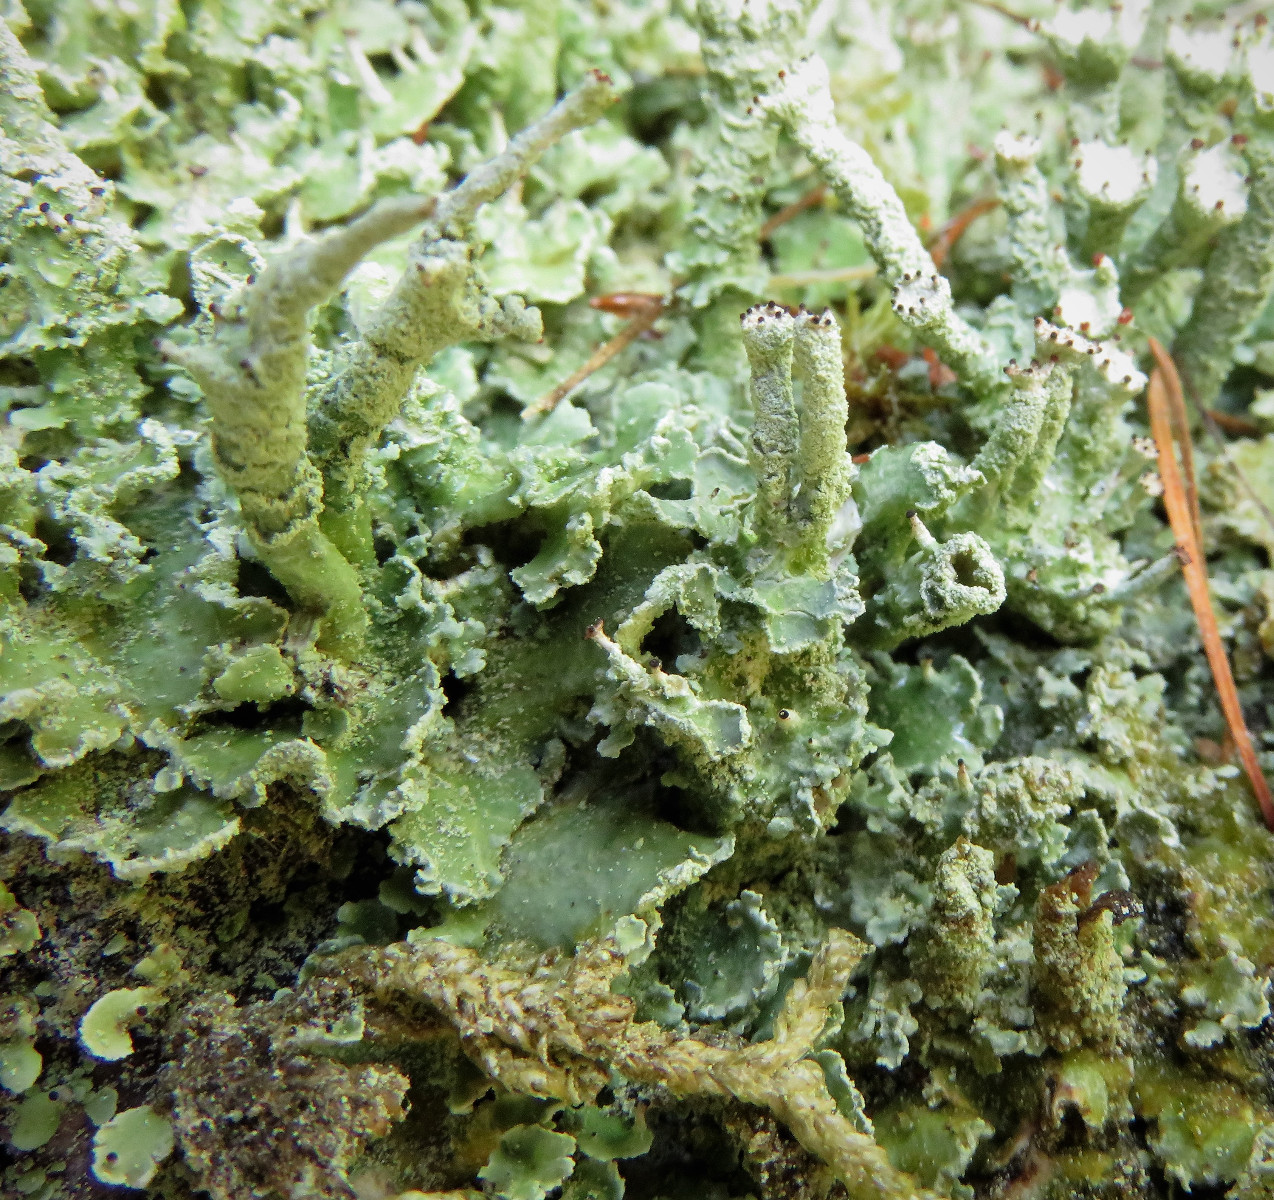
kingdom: Fungi
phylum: Ascomycota
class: Lecanoromycetes
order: Lecanorales
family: Cladoniaceae
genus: Cladonia
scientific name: Cladonia digitata
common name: finger-bægerlav
